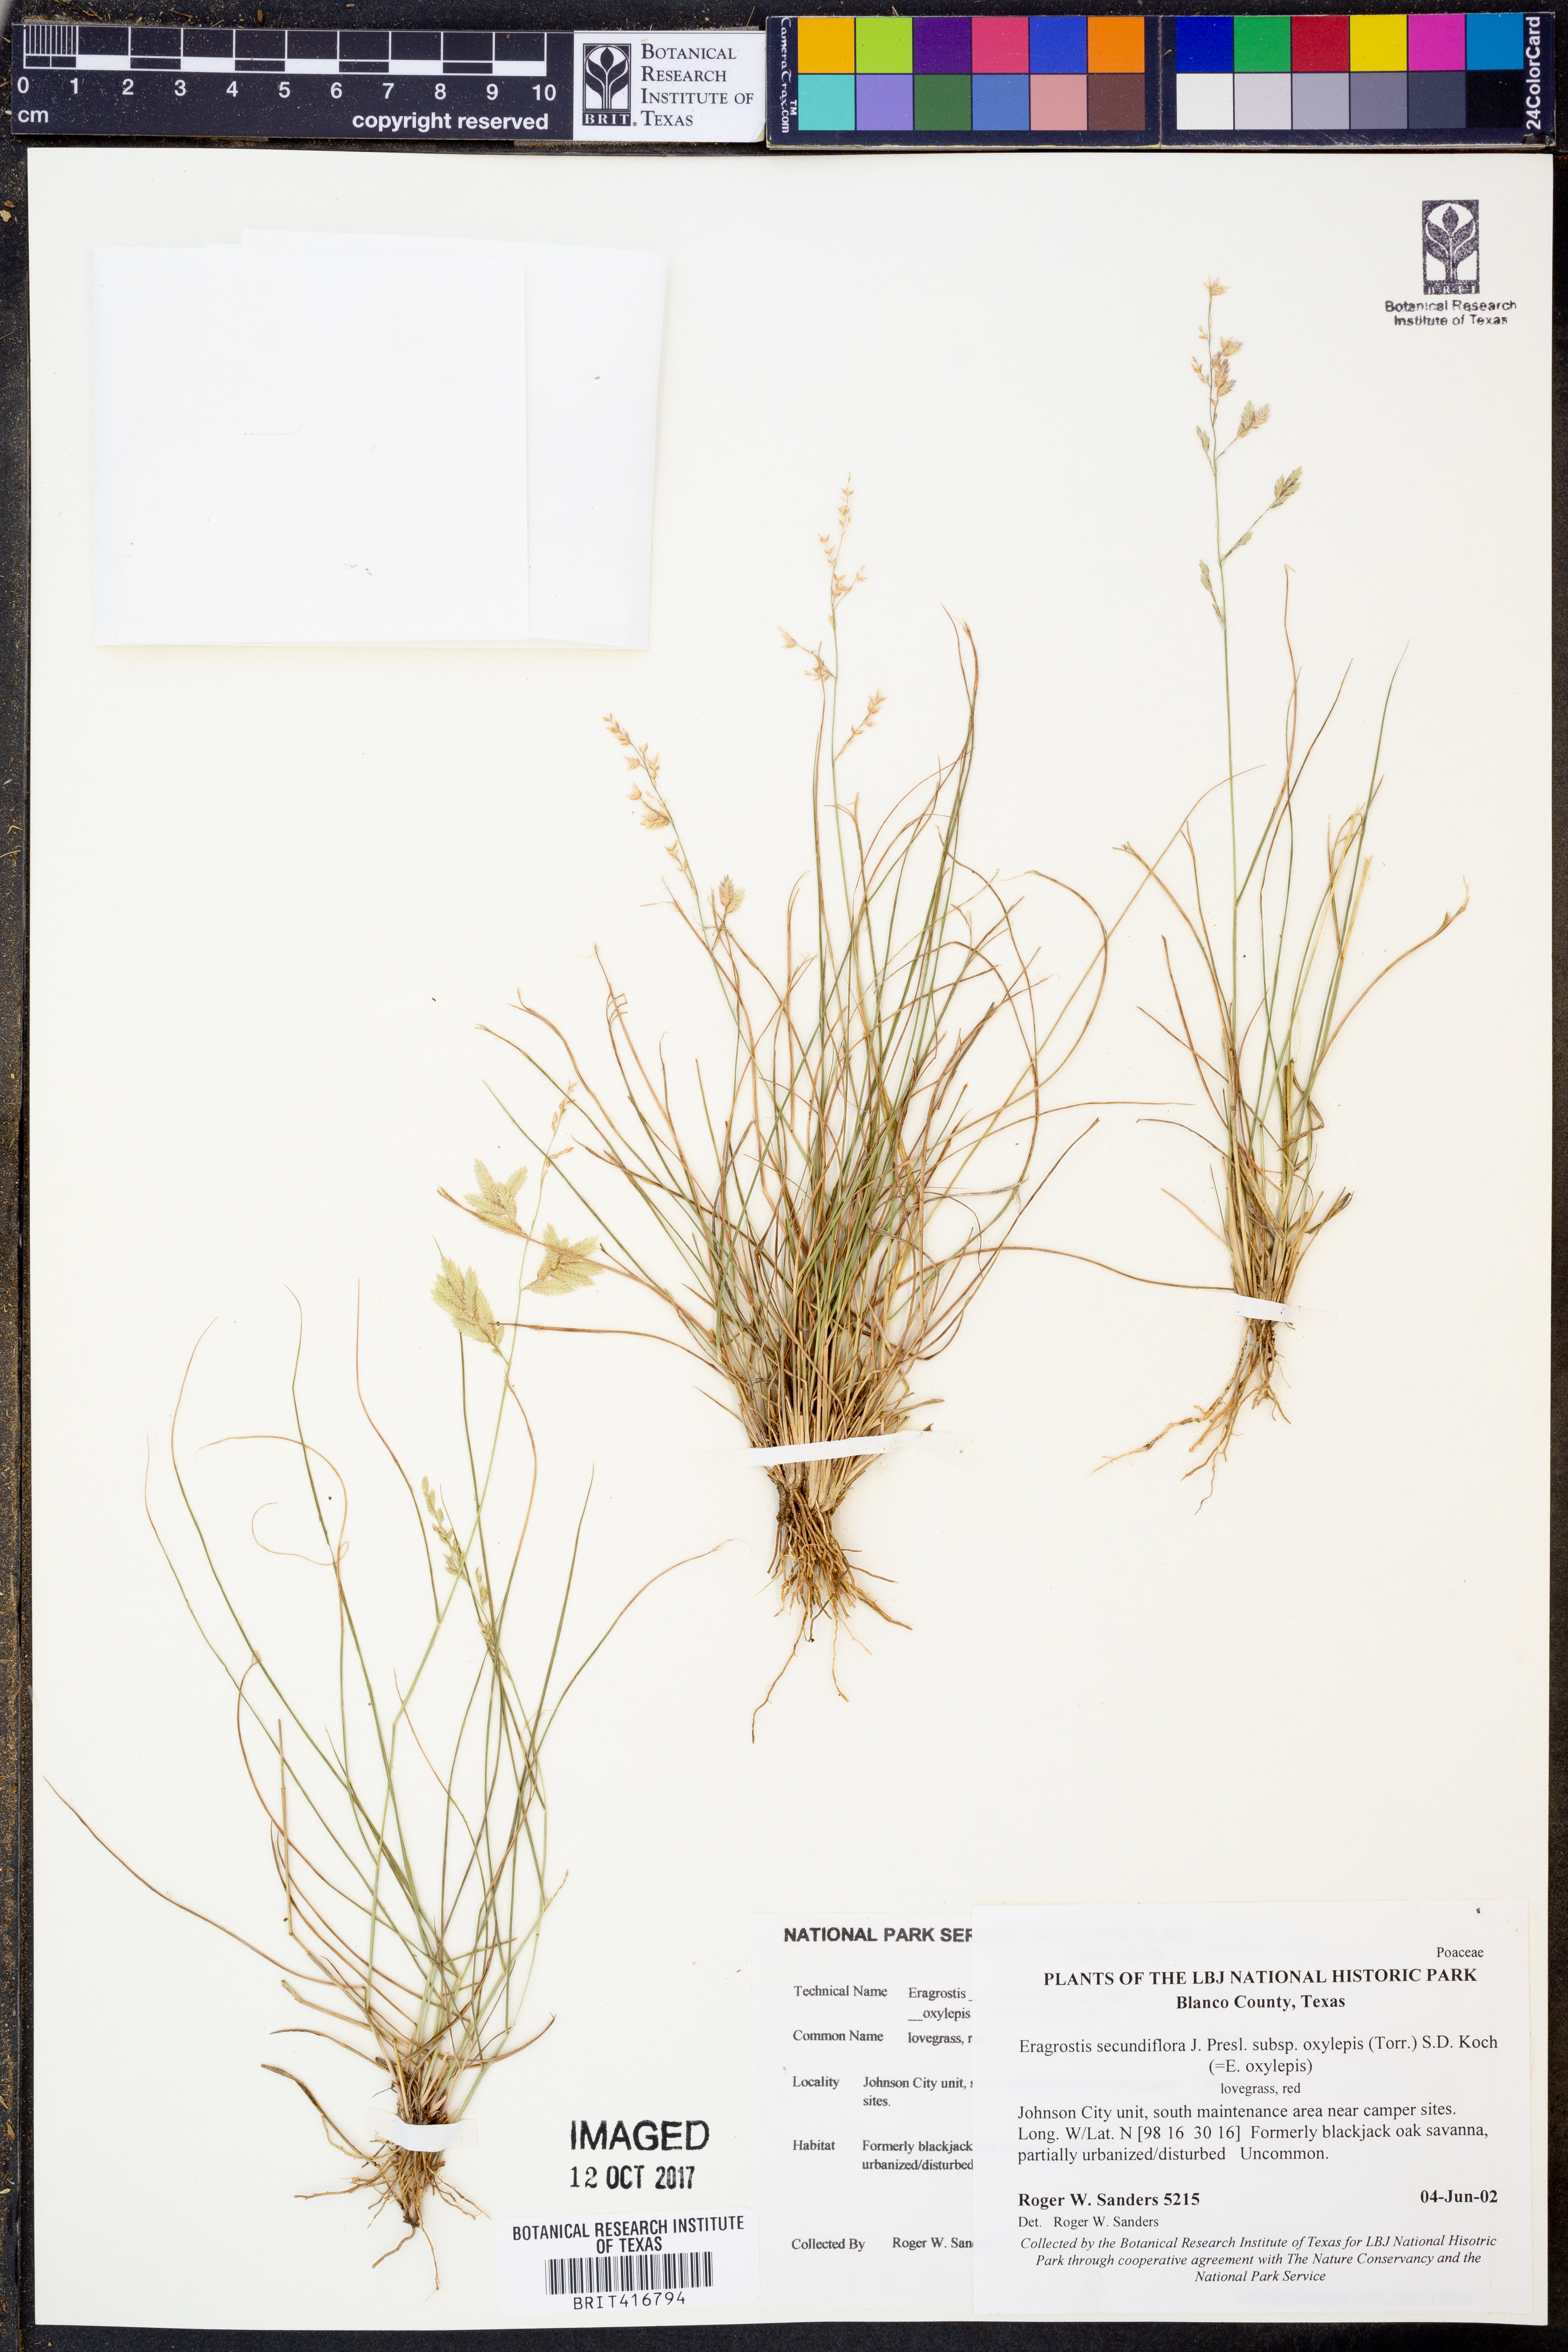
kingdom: Plantae
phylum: Tracheophyta
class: Liliopsida
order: Poales
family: Poaceae
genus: Eragrostis
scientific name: Eragrostis secundiflora
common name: Red love grass
